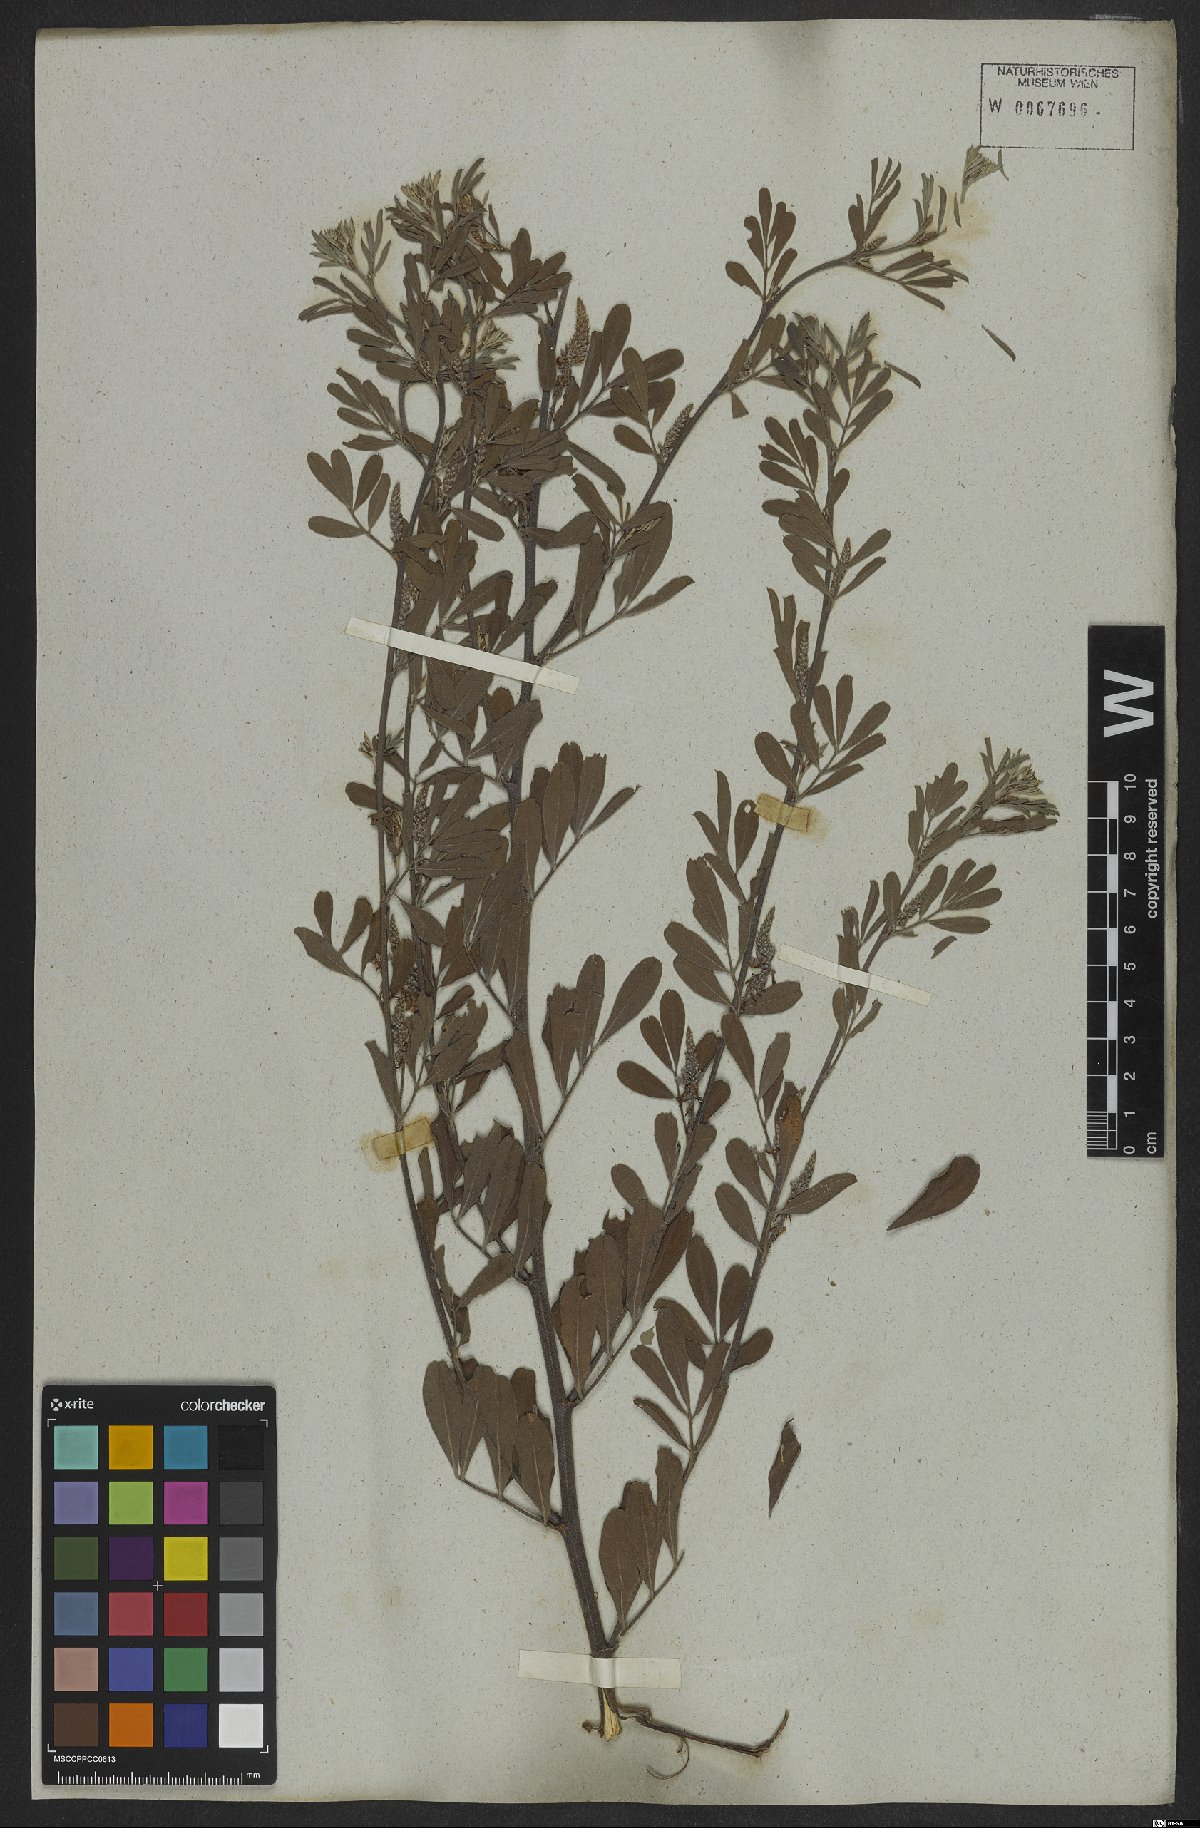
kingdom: Plantae
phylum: Tracheophyta
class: Magnoliopsida
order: Fabales
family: Fabaceae
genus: Indigofera
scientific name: Indigofera lespedezioides
